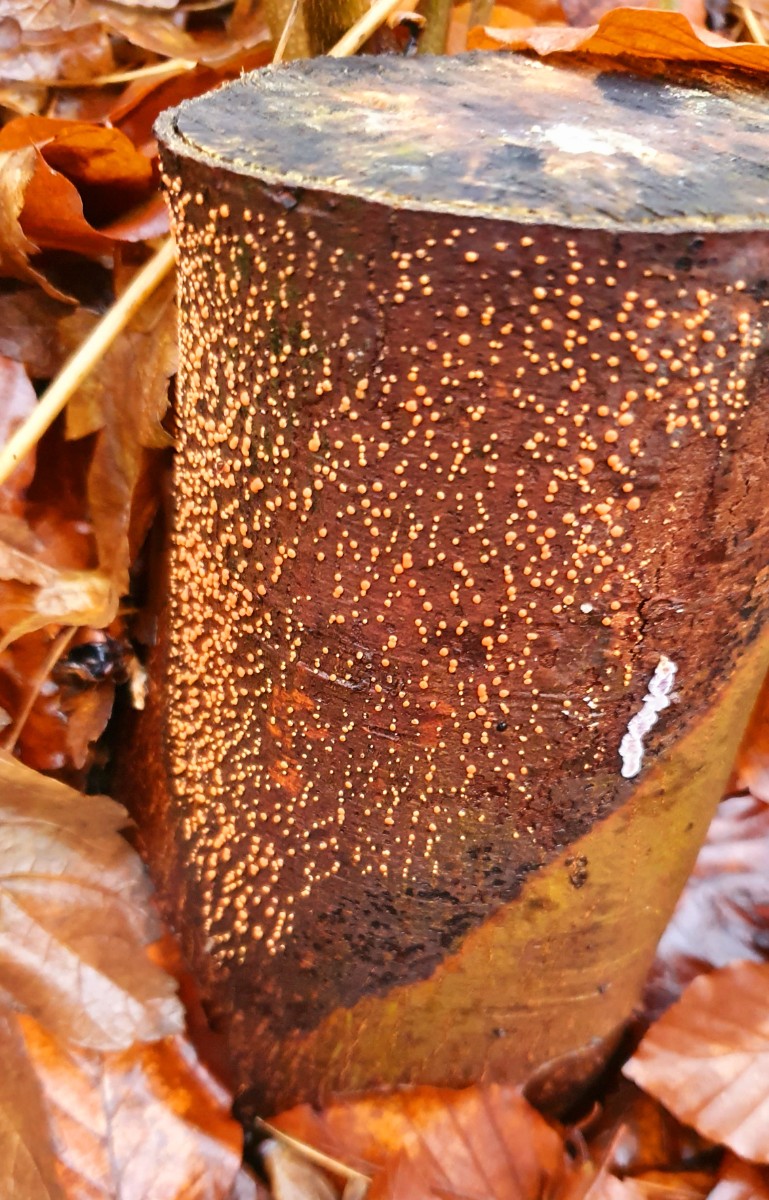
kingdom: Fungi
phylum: Ascomycota
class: Sordariomycetes
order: Hypocreales
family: Nectriaceae
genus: Nectria
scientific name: Nectria cinnabarina
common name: almindelig cinnobersvamp
